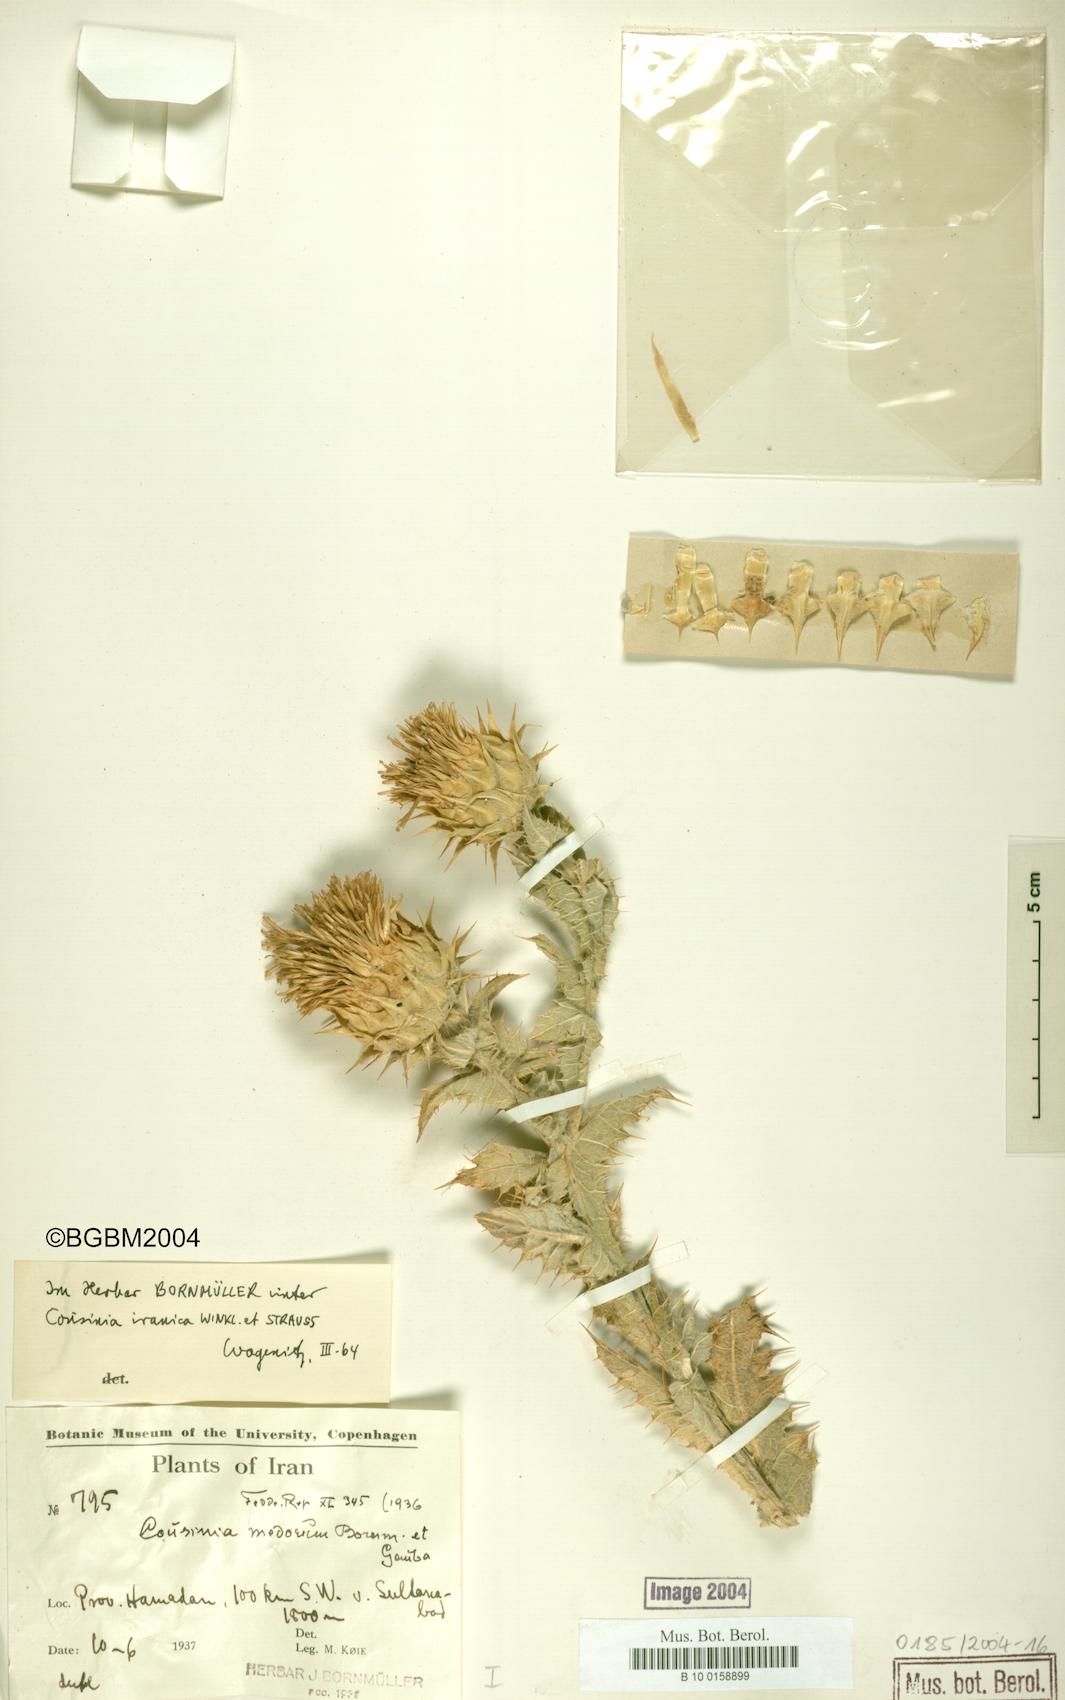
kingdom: Plantae
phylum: Tracheophyta
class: Magnoliopsida
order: Asterales
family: Asteraceae
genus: Cousinia
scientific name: Cousinia sagittata
